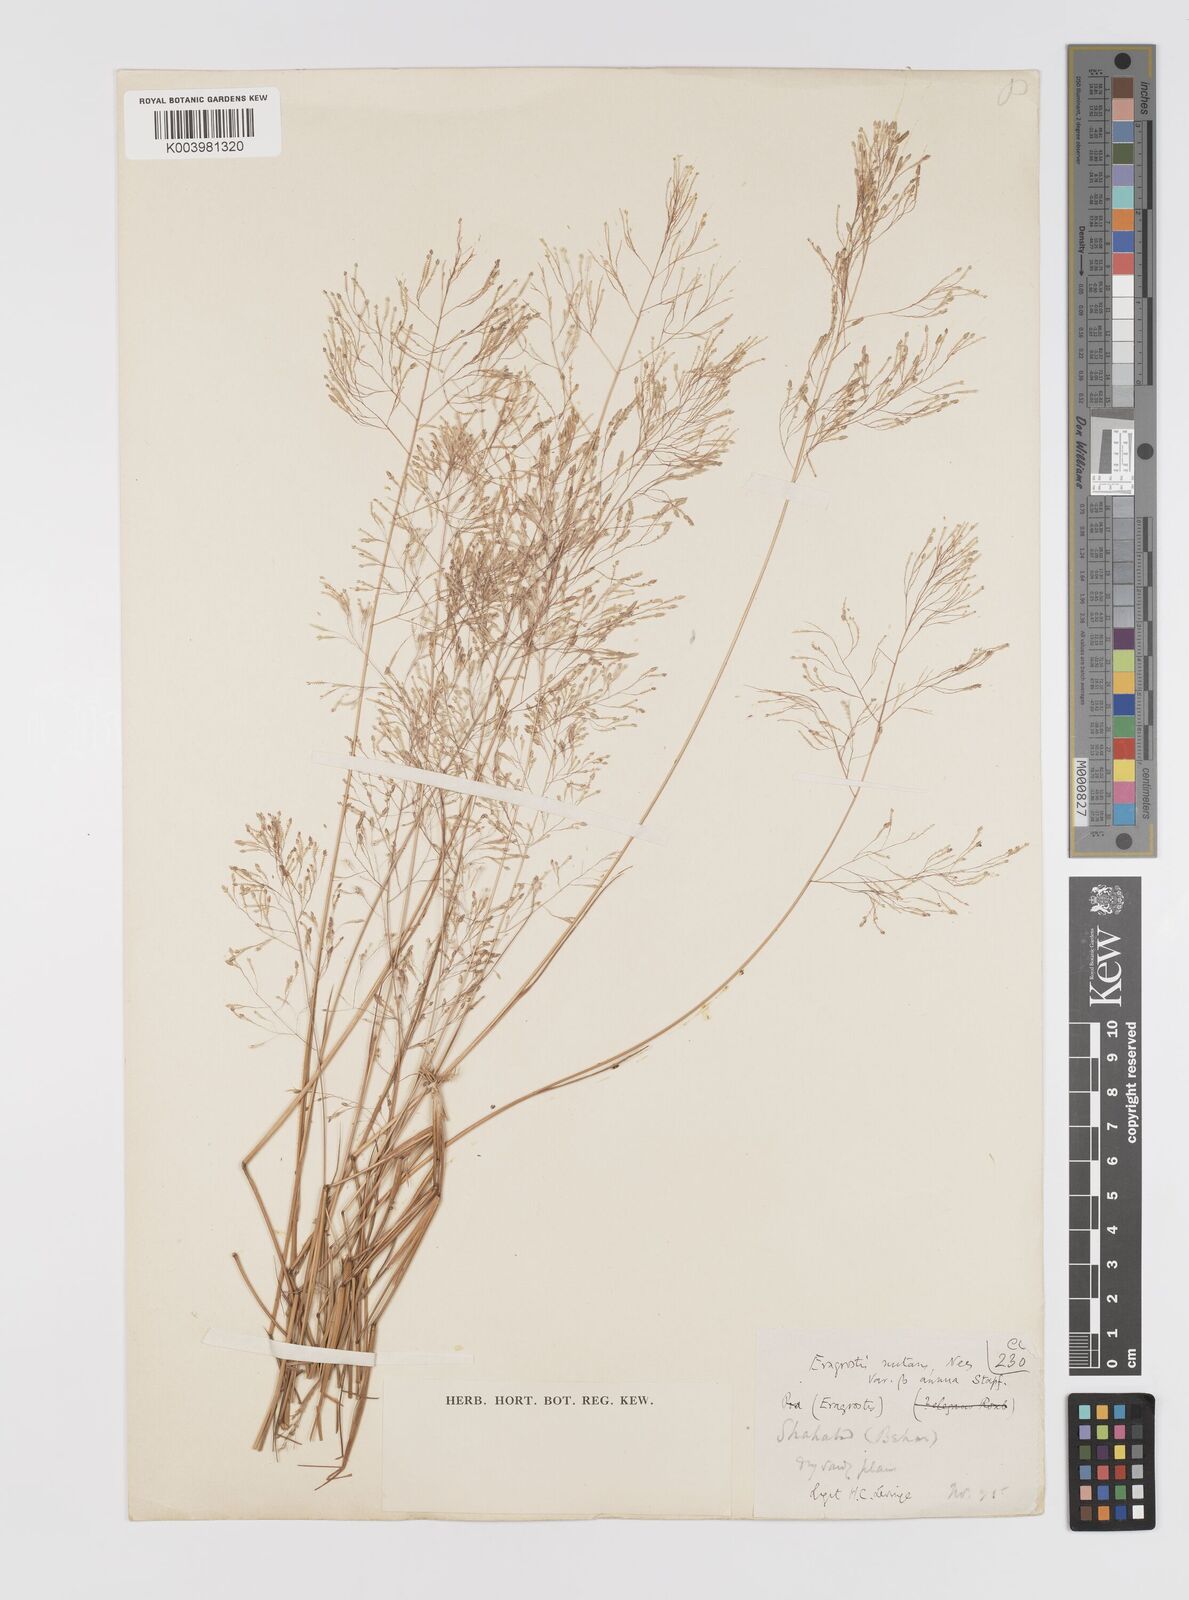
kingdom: Plantae
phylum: Tracheophyta
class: Liliopsida
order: Poales
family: Poaceae
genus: Eragrostis
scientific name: Eragrostis gangetica
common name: Slimflower lovegrass
